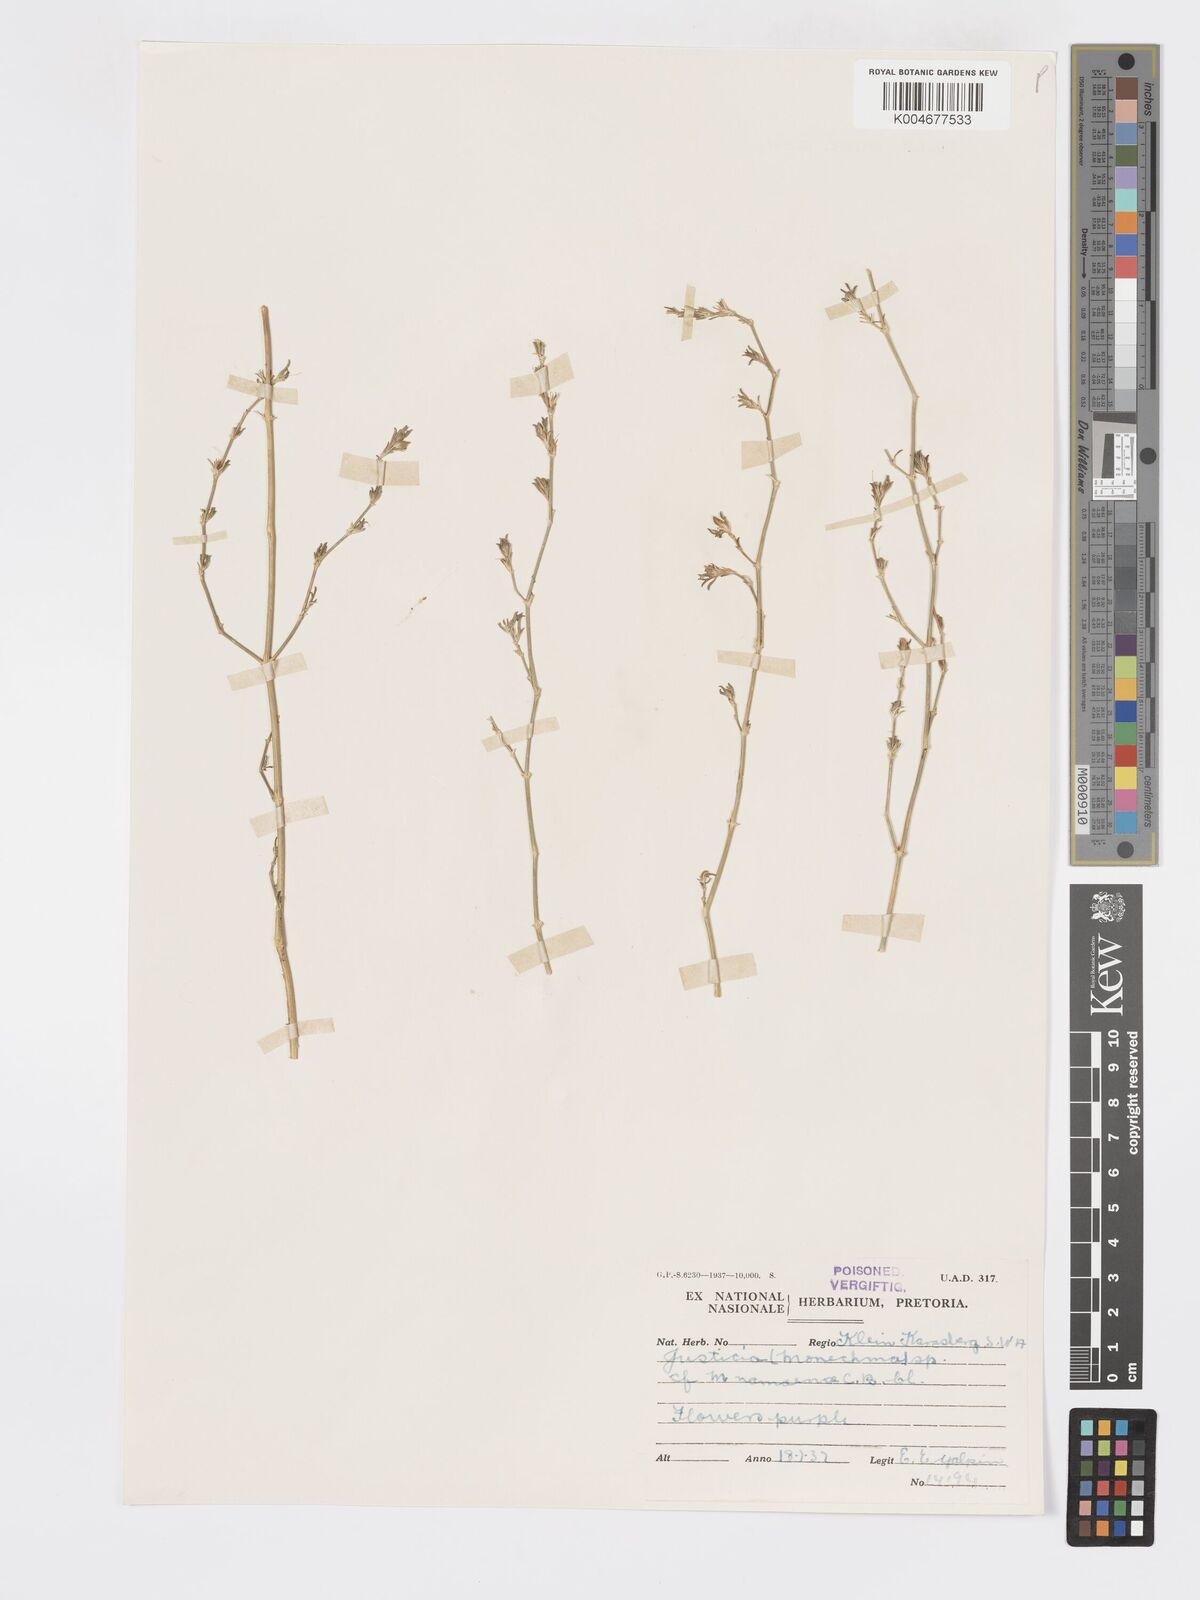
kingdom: Plantae
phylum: Tracheophyta
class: Magnoliopsida
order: Lamiales
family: Acanthaceae
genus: Pogonospermum
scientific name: Pogonospermum
